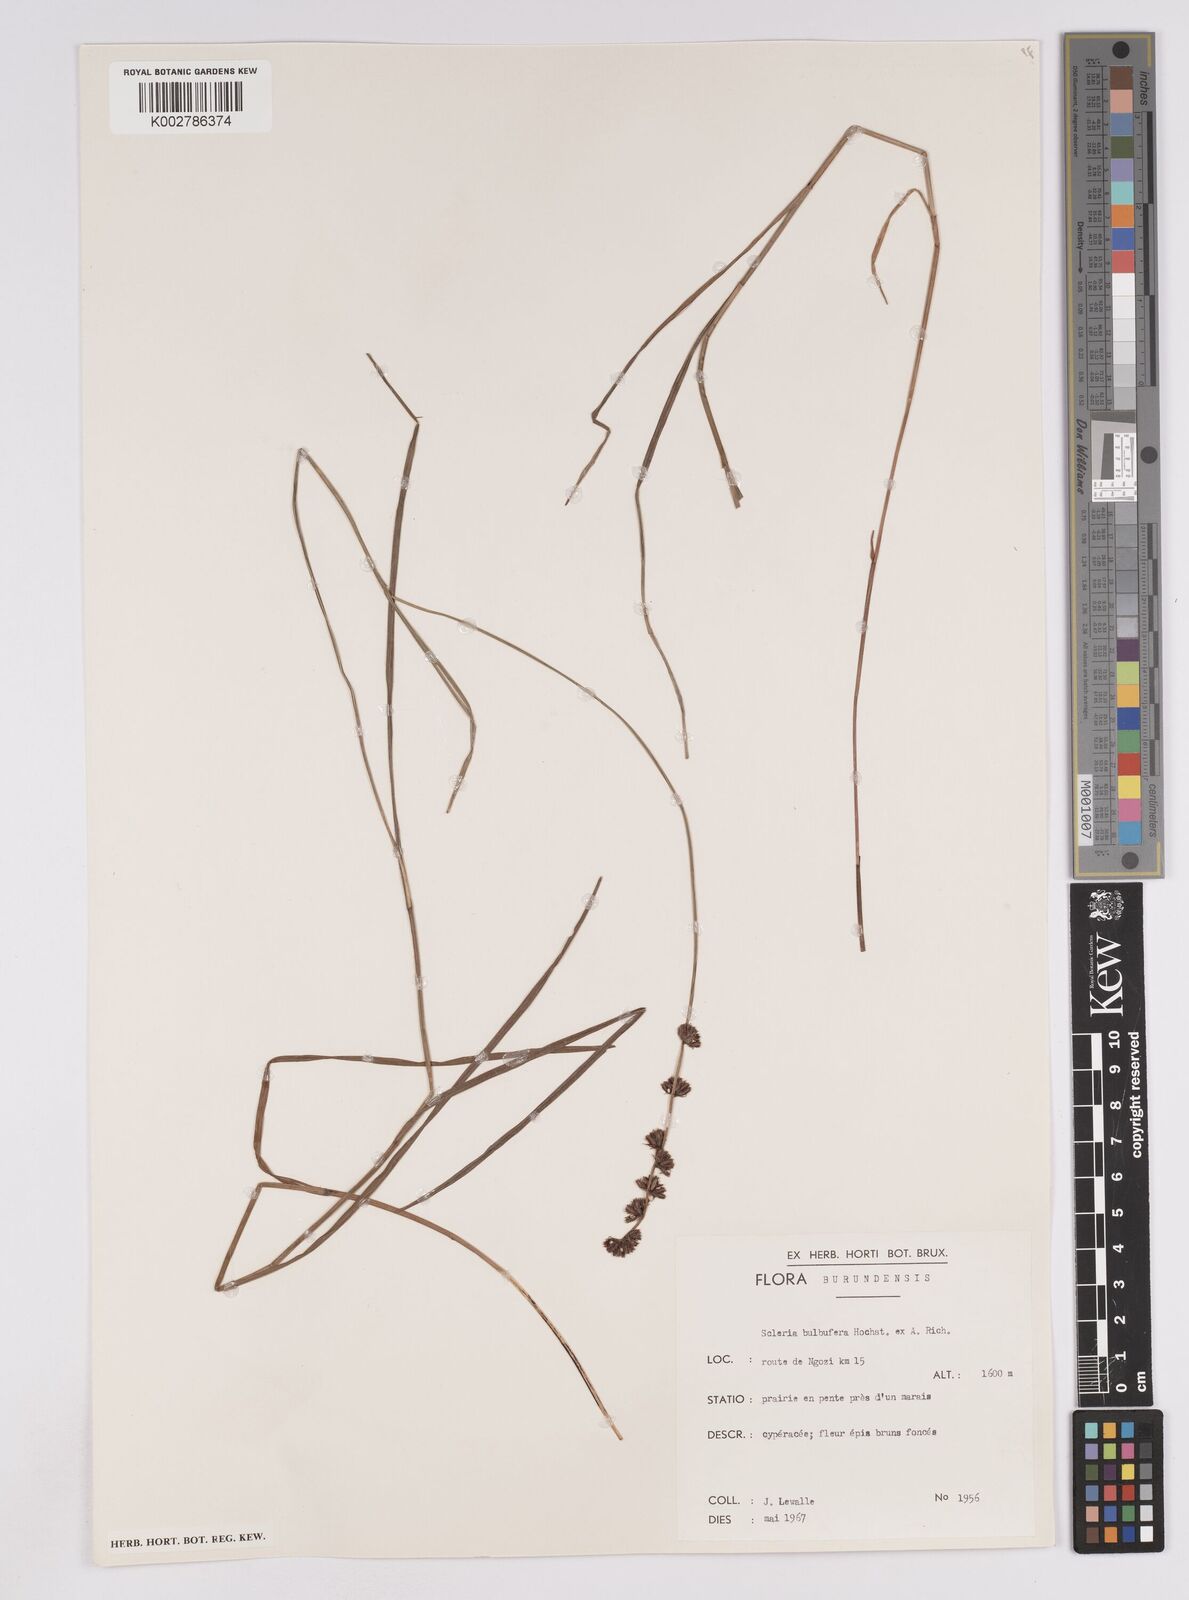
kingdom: Plantae
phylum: Tracheophyta
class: Liliopsida
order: Poales
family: Cyperaceae
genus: Scleria
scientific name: Scleria bulbifera
